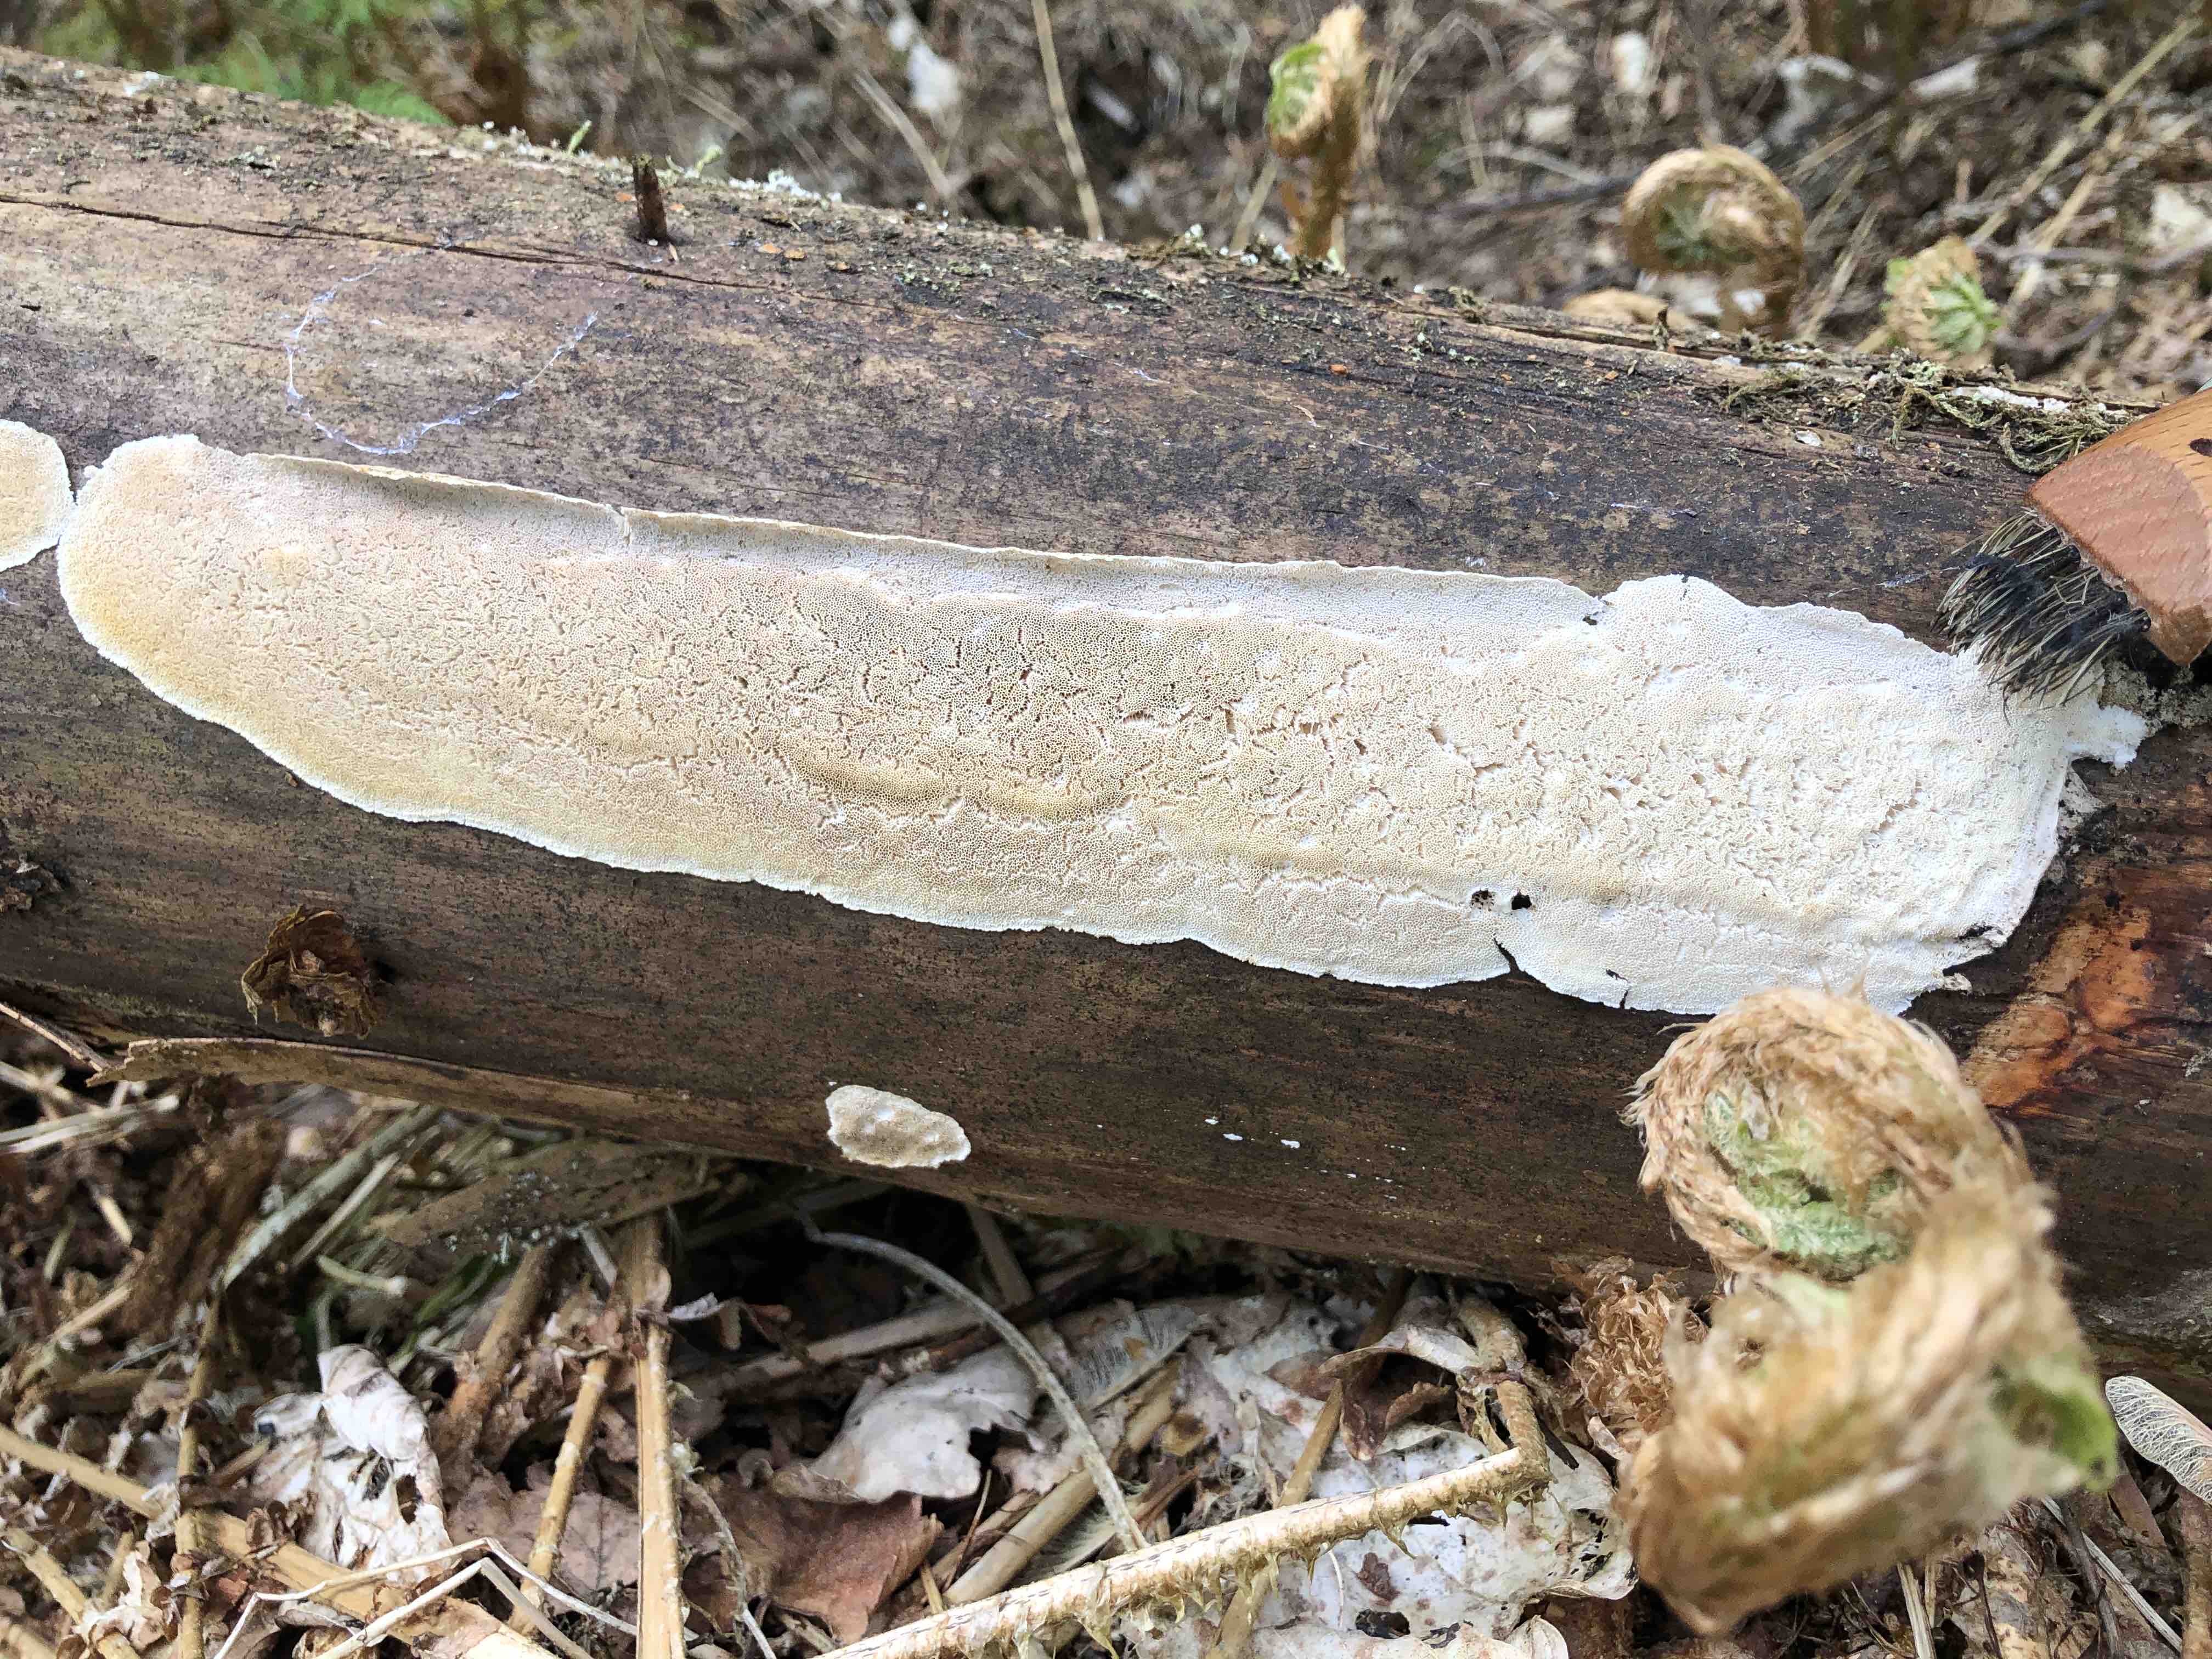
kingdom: Fungi
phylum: Basidiomycota
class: Agaricomycetes
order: Polyporales
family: Gelatoporiaceae
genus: Cinereomyces
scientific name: Cinereomyces lindbladii
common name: almindelig gråporesvamp
